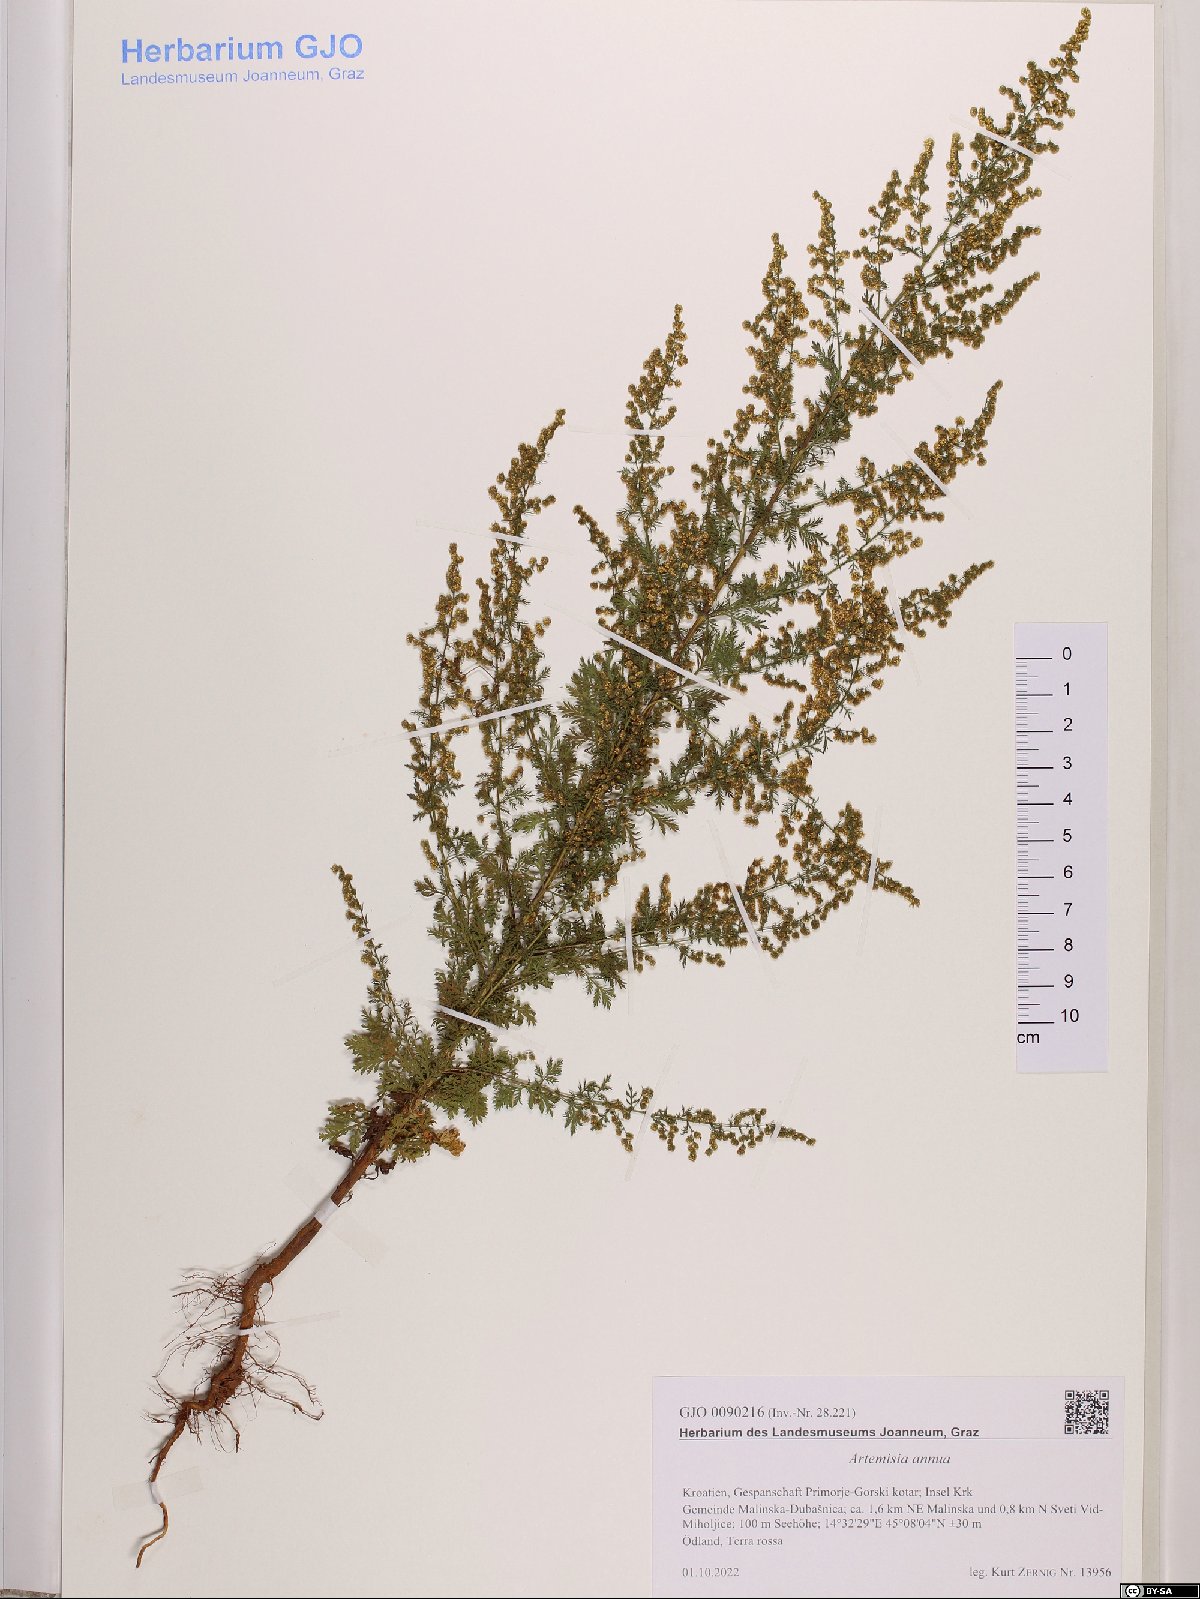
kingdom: Plantae
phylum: Tracheophyta
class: Magnoliopsida
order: Asterales
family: Asteraceae
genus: Artemisia
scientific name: Artemisia annua
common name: Sweet sagewort
